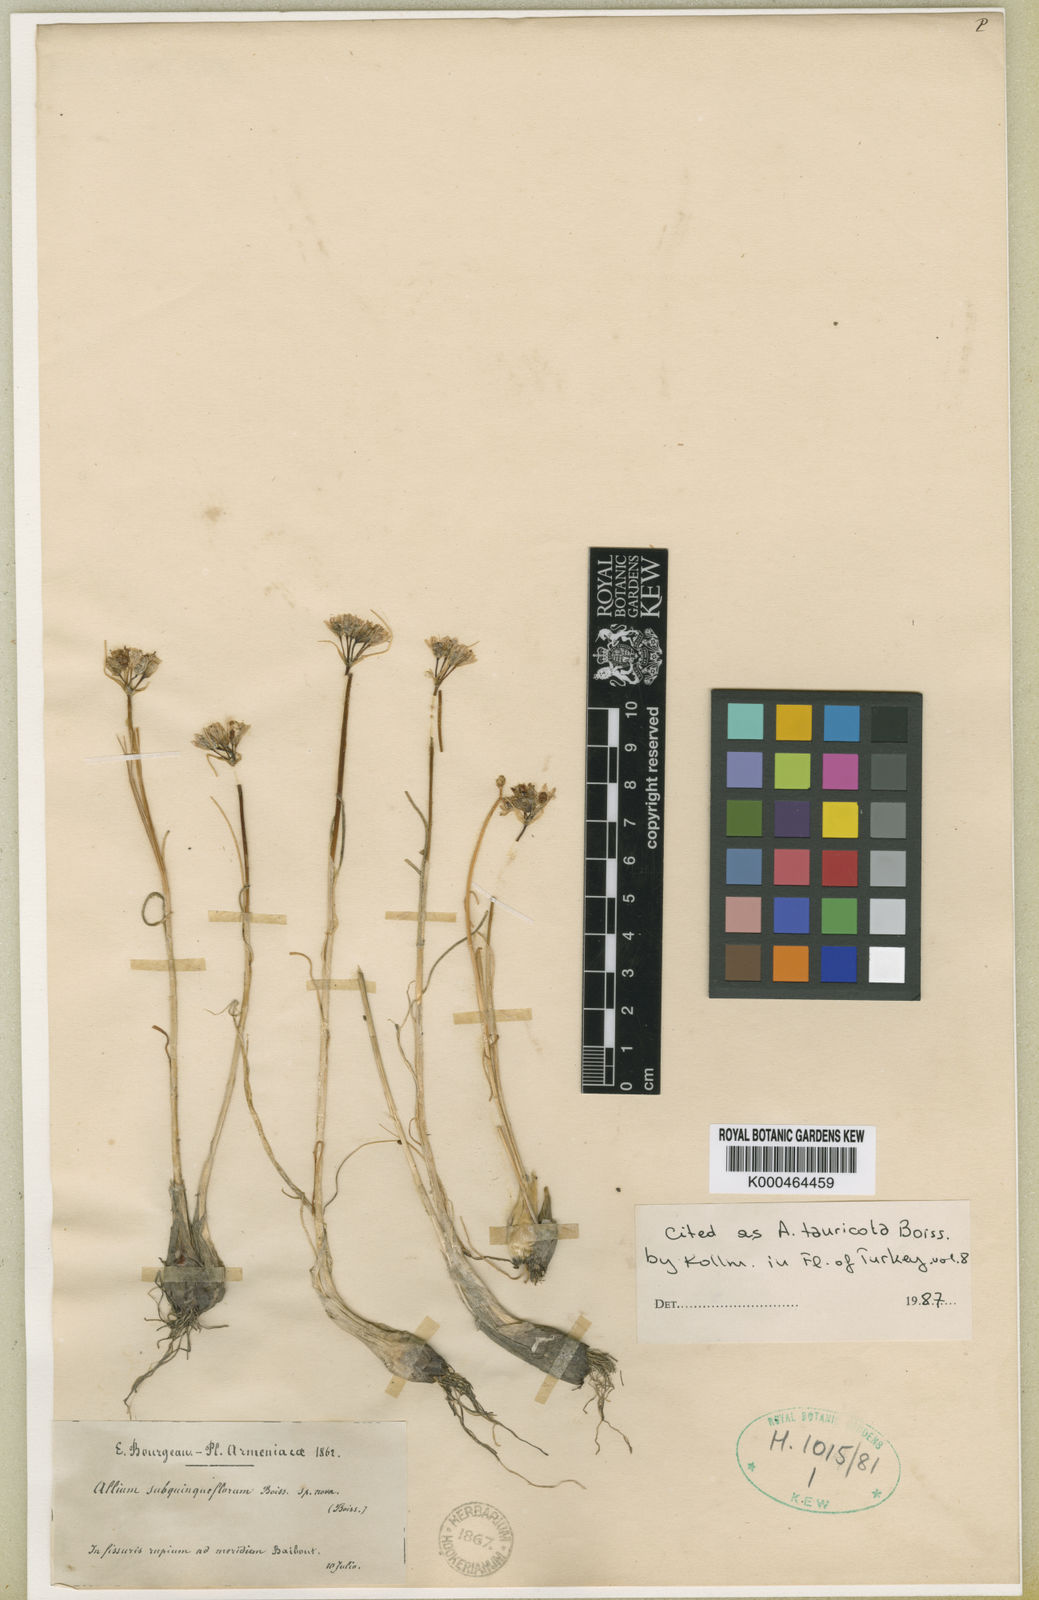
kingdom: Plantae
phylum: Tracheophyta
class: Liliopsida
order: Asparagales
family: Amaryllidaceae
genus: Allium
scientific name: Allium tauricola
